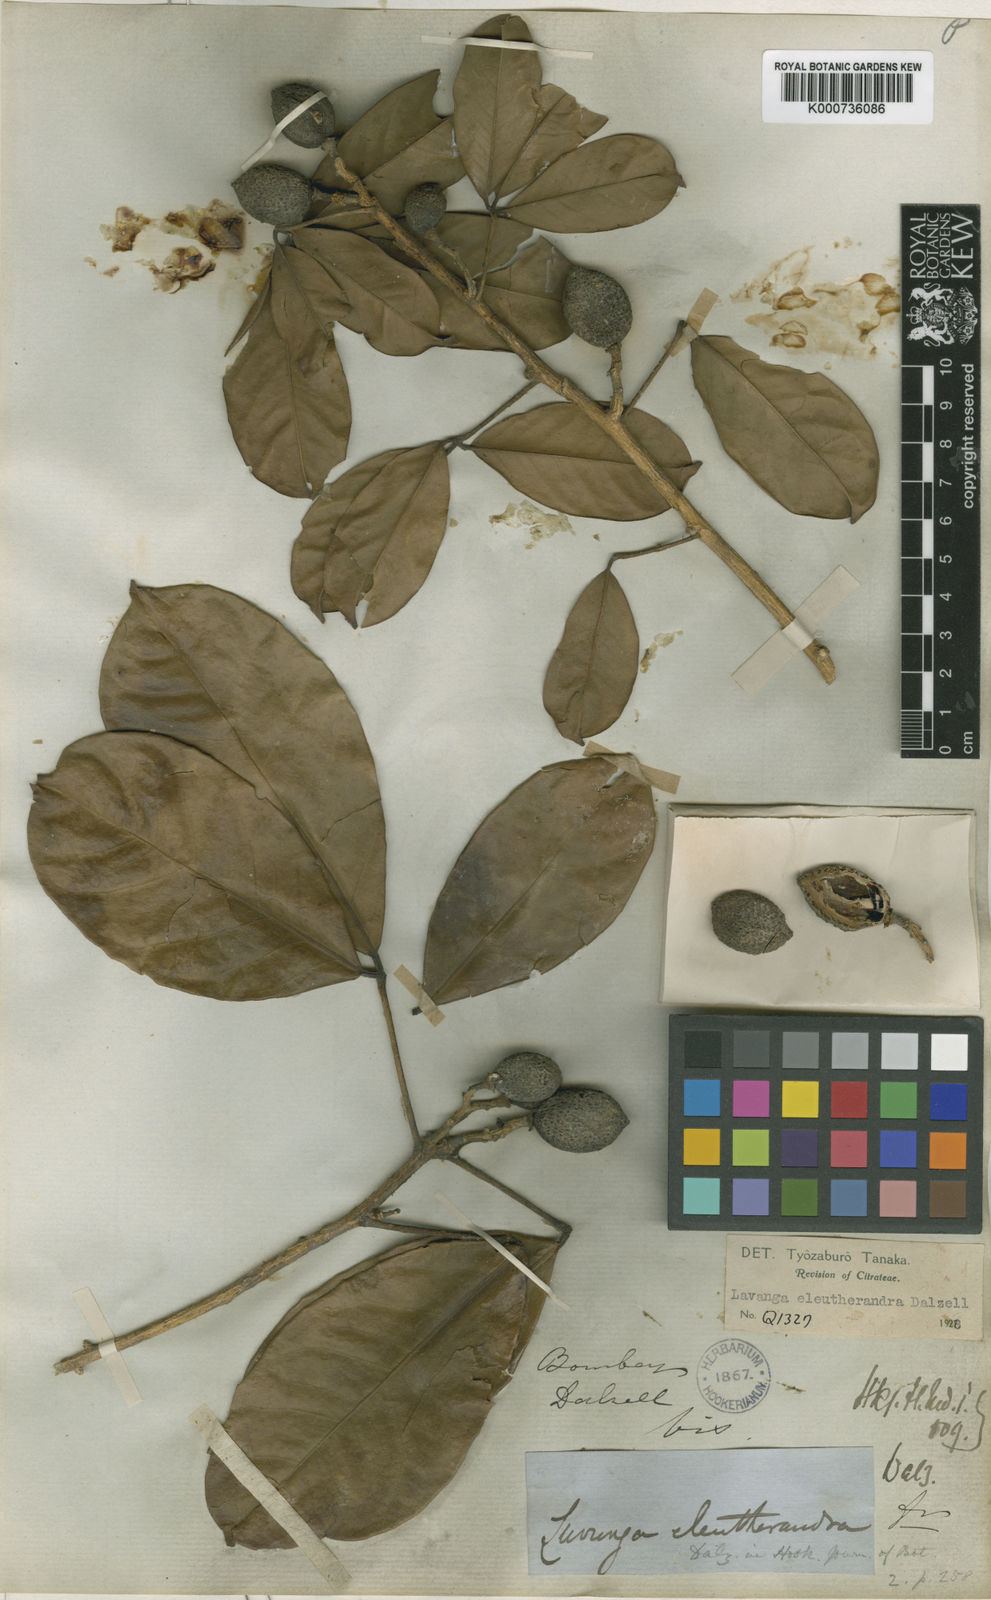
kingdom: Plantae
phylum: Tracheophyta
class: Magnoliopsida
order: Sapindales
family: Rutaceae
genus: Luvunga
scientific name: Luvunga sarmentosa
